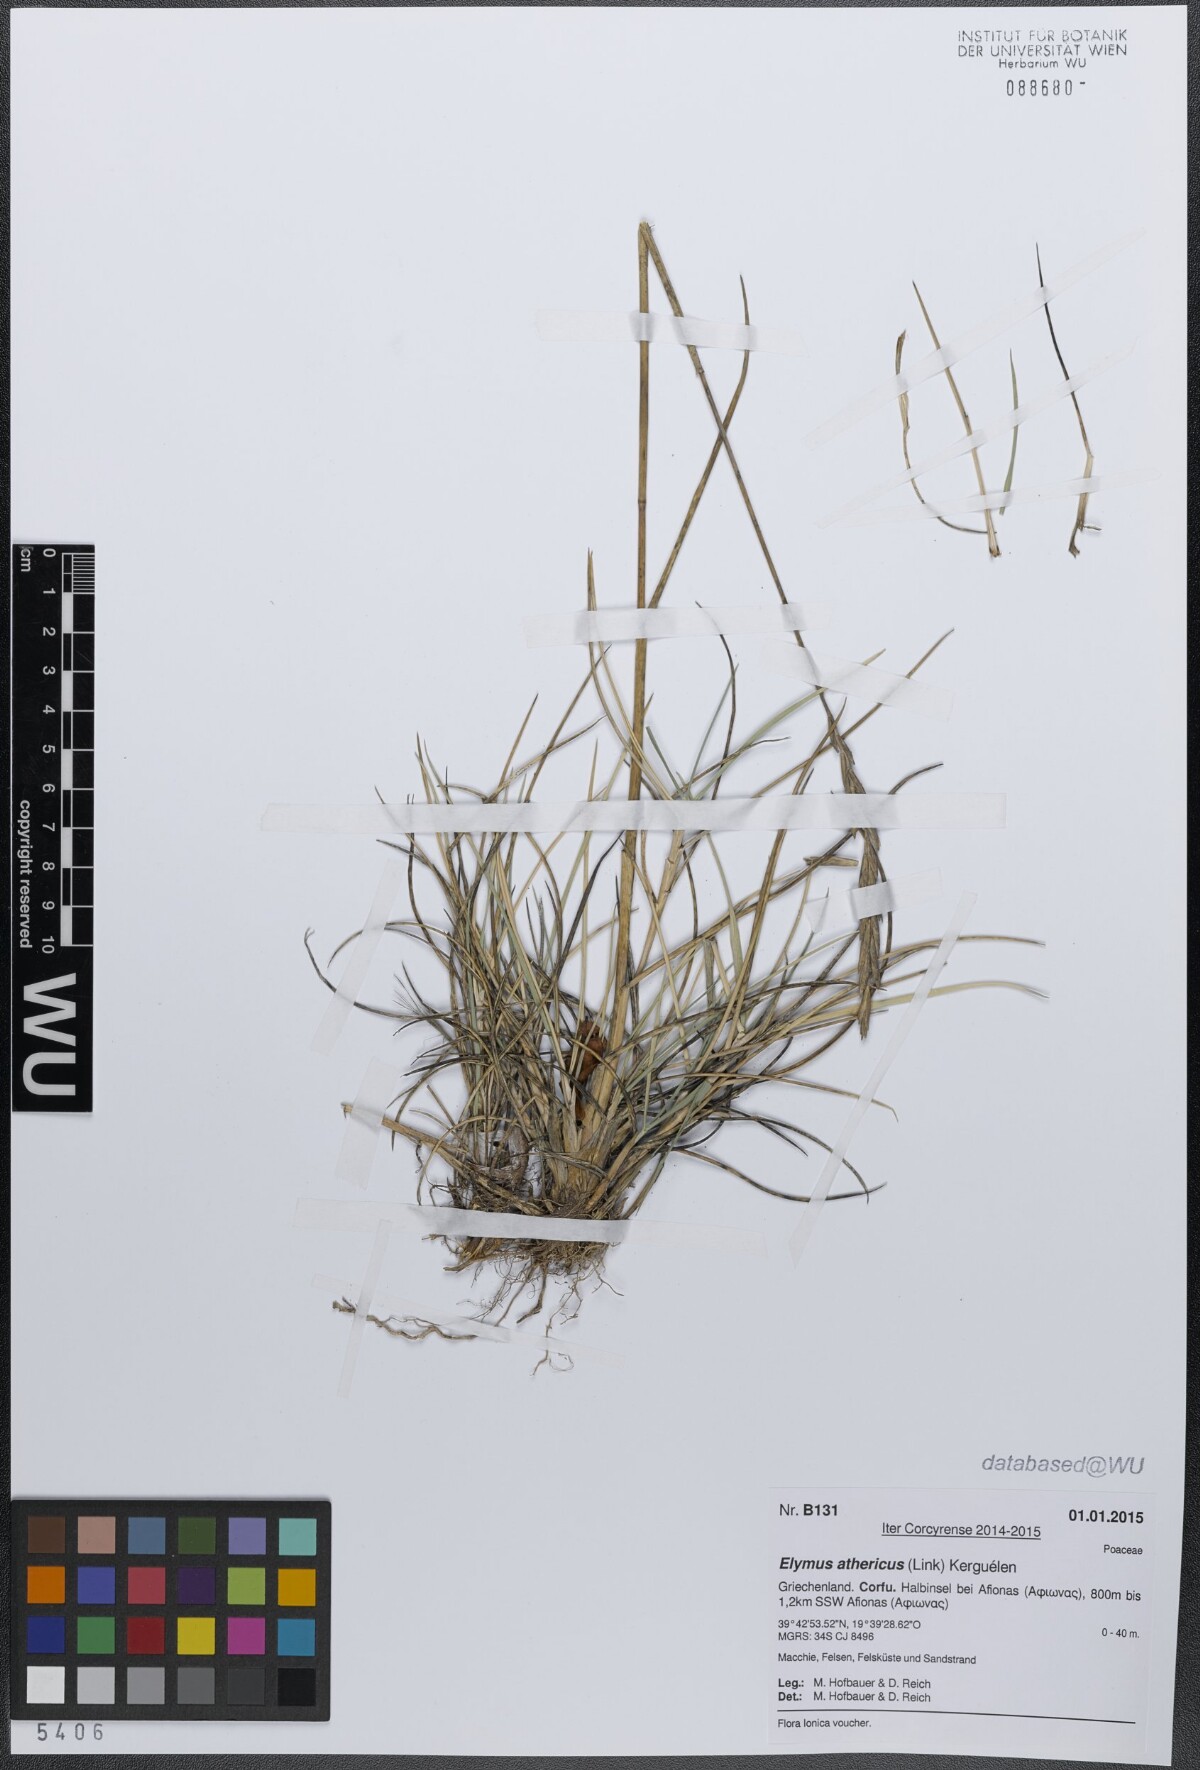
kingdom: Plantae
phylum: Tracheophyta
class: Liliopsida
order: Poales
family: Poaceae
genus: Elymus
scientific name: Elymus athericus
